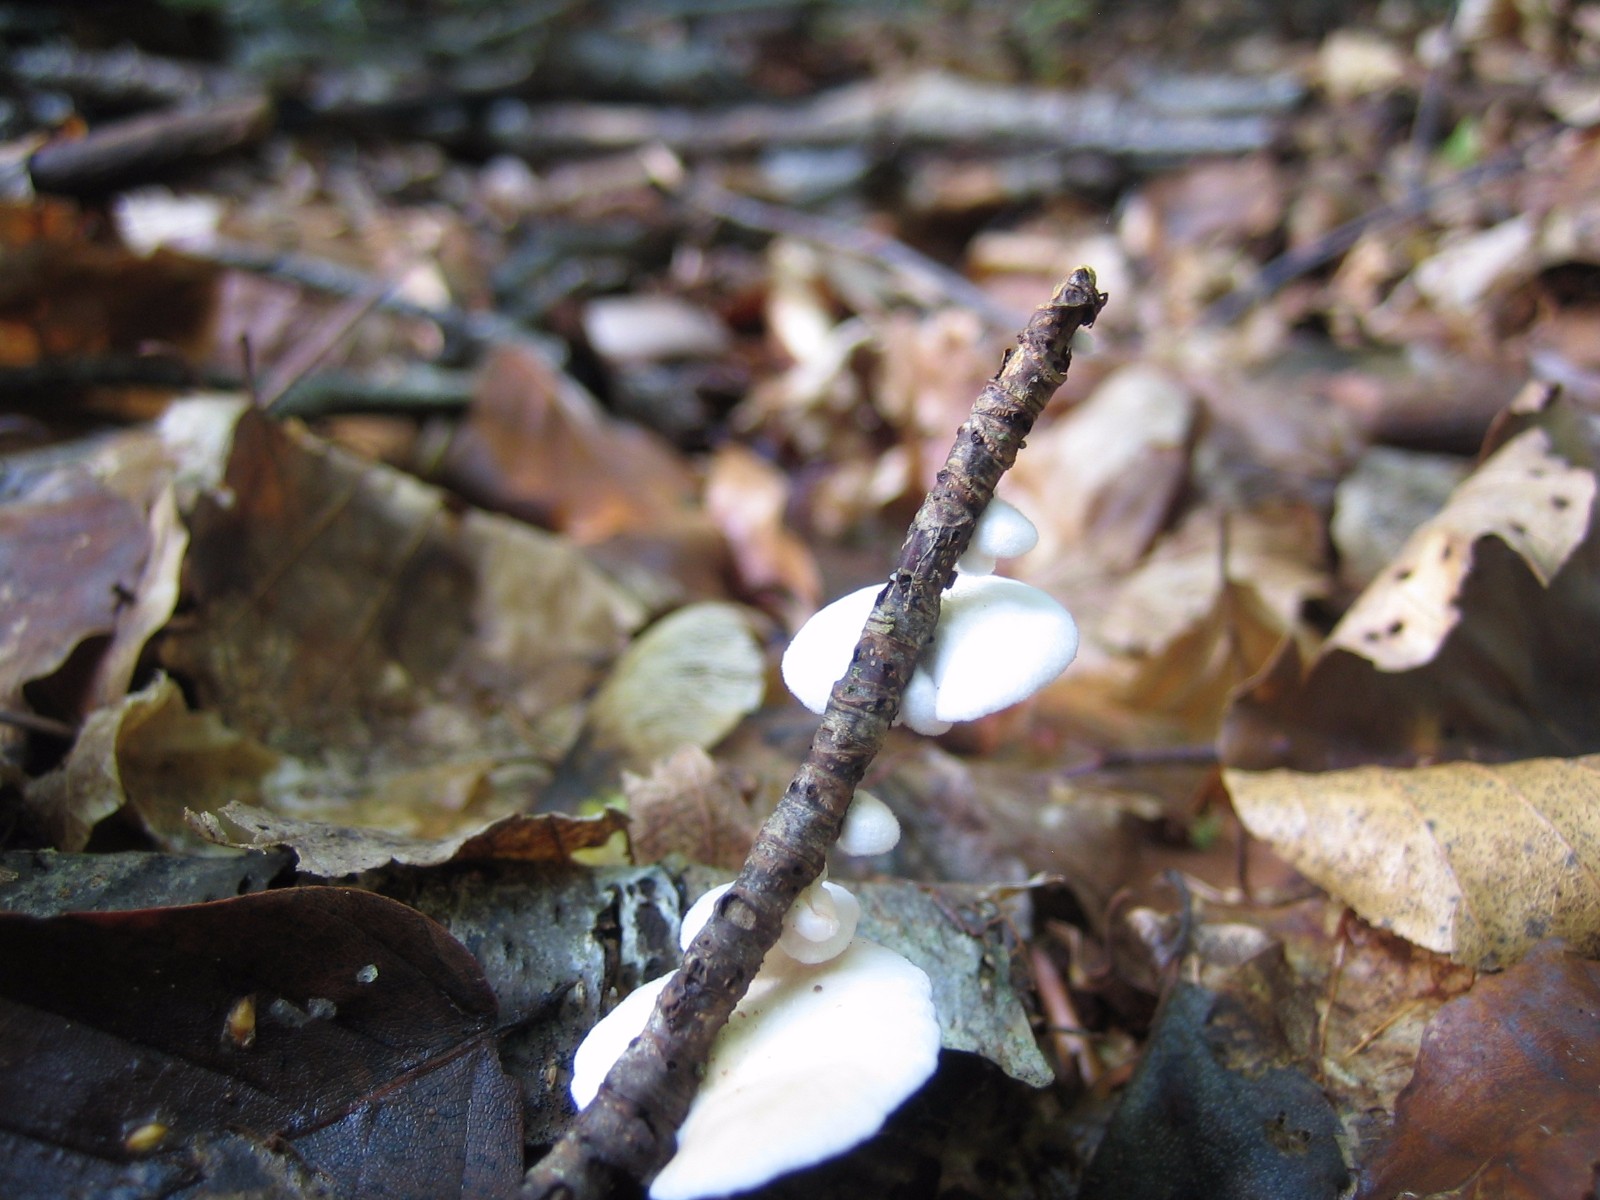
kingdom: Fungi
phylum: Basidiomycota
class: Agaricomycetes
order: Agaricales
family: Crepidotaceae
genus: Crepidotus
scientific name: Crepidotus
